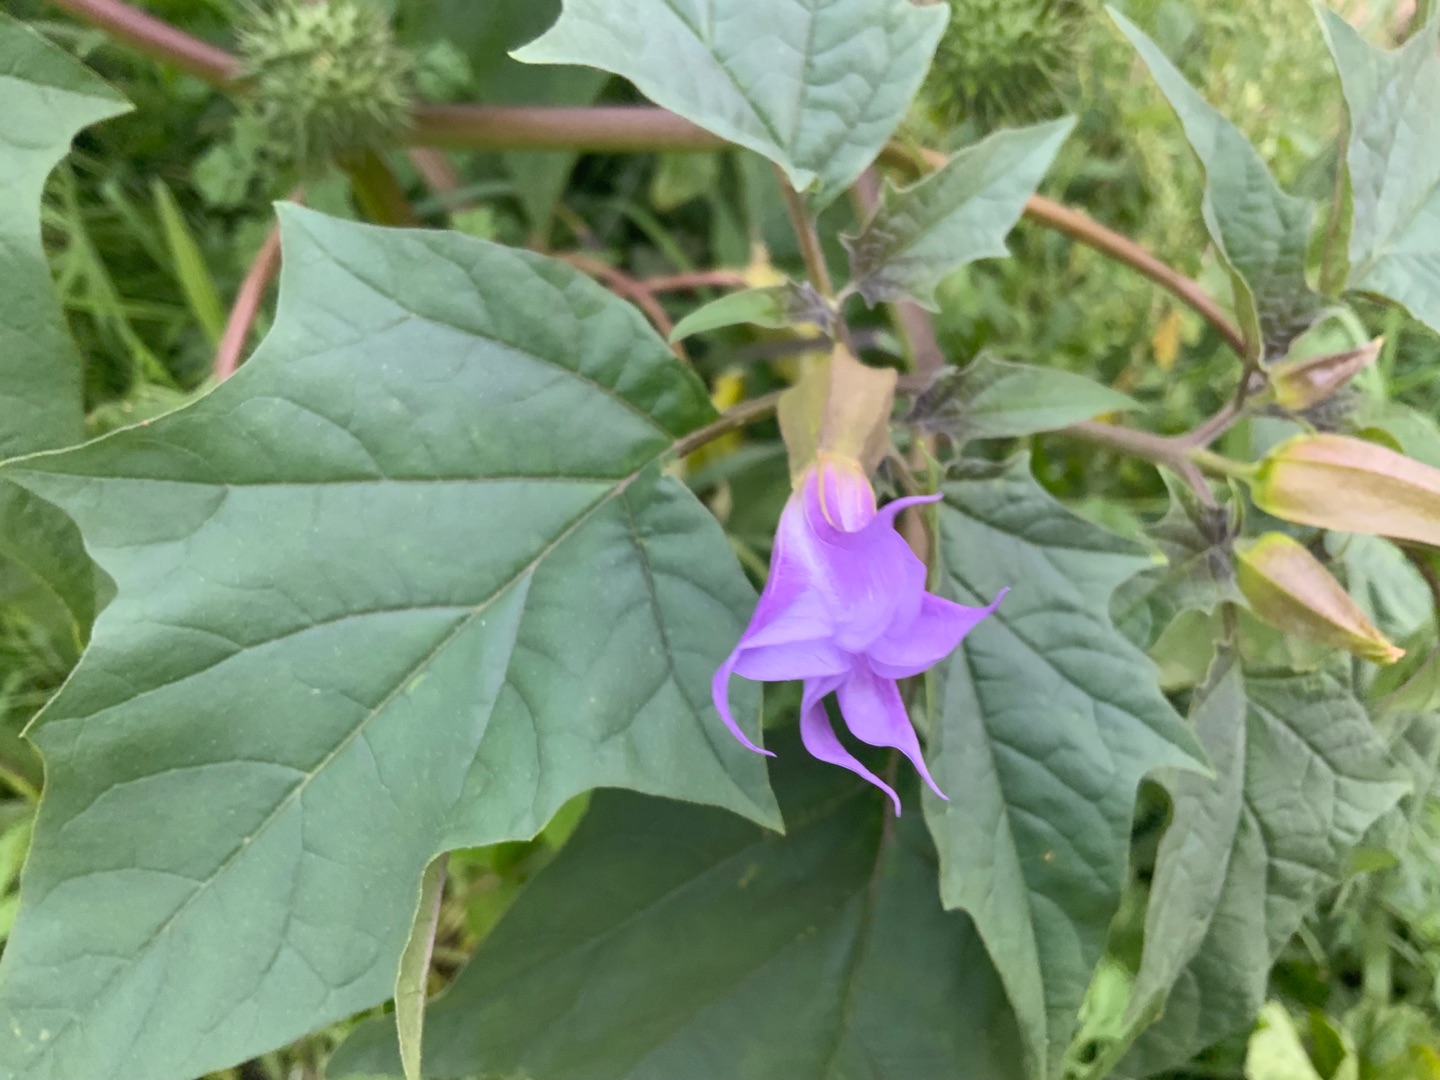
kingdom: Plantae
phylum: Tracheophyta
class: Magnoliopsida
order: Solanales
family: Solanaceae
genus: Datura
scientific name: Datura stramonium
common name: Blå pigæble
